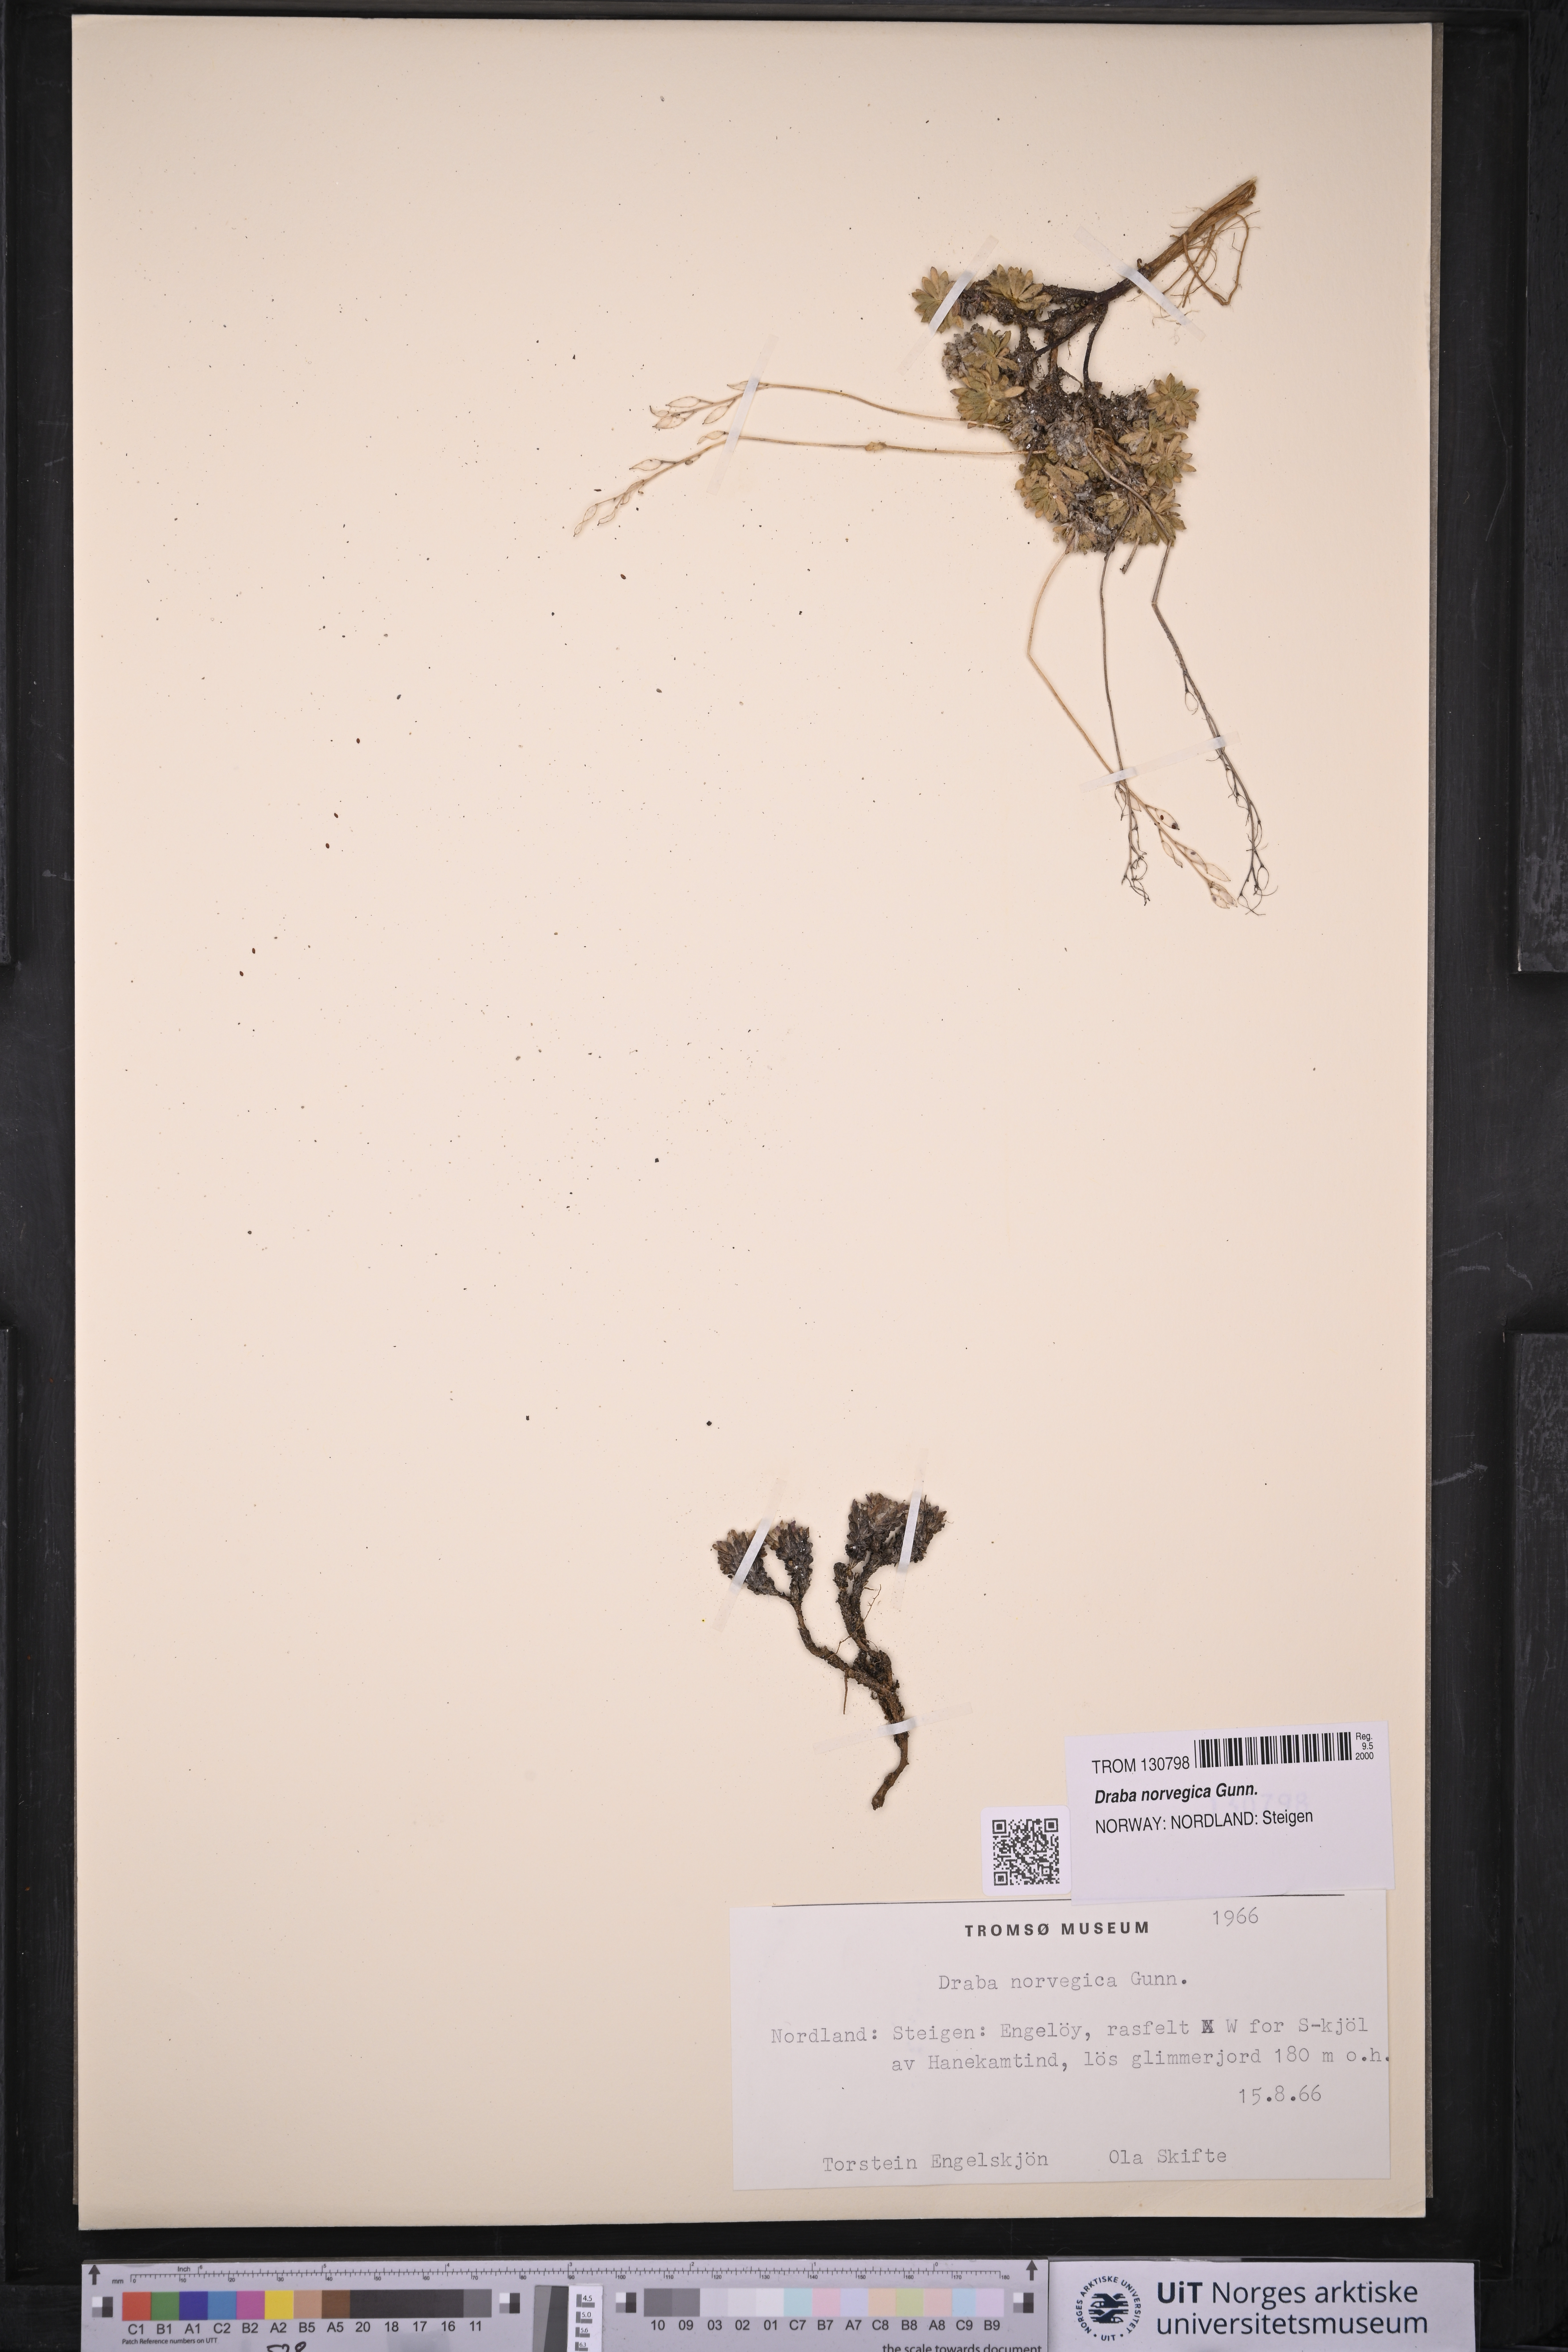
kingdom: Plantae
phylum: Tracheophyta
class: Magnoliopsida
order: Brassicales
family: Brassicaceae
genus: Draba
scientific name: Draba norvegica
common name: Rock whitlowgrass
